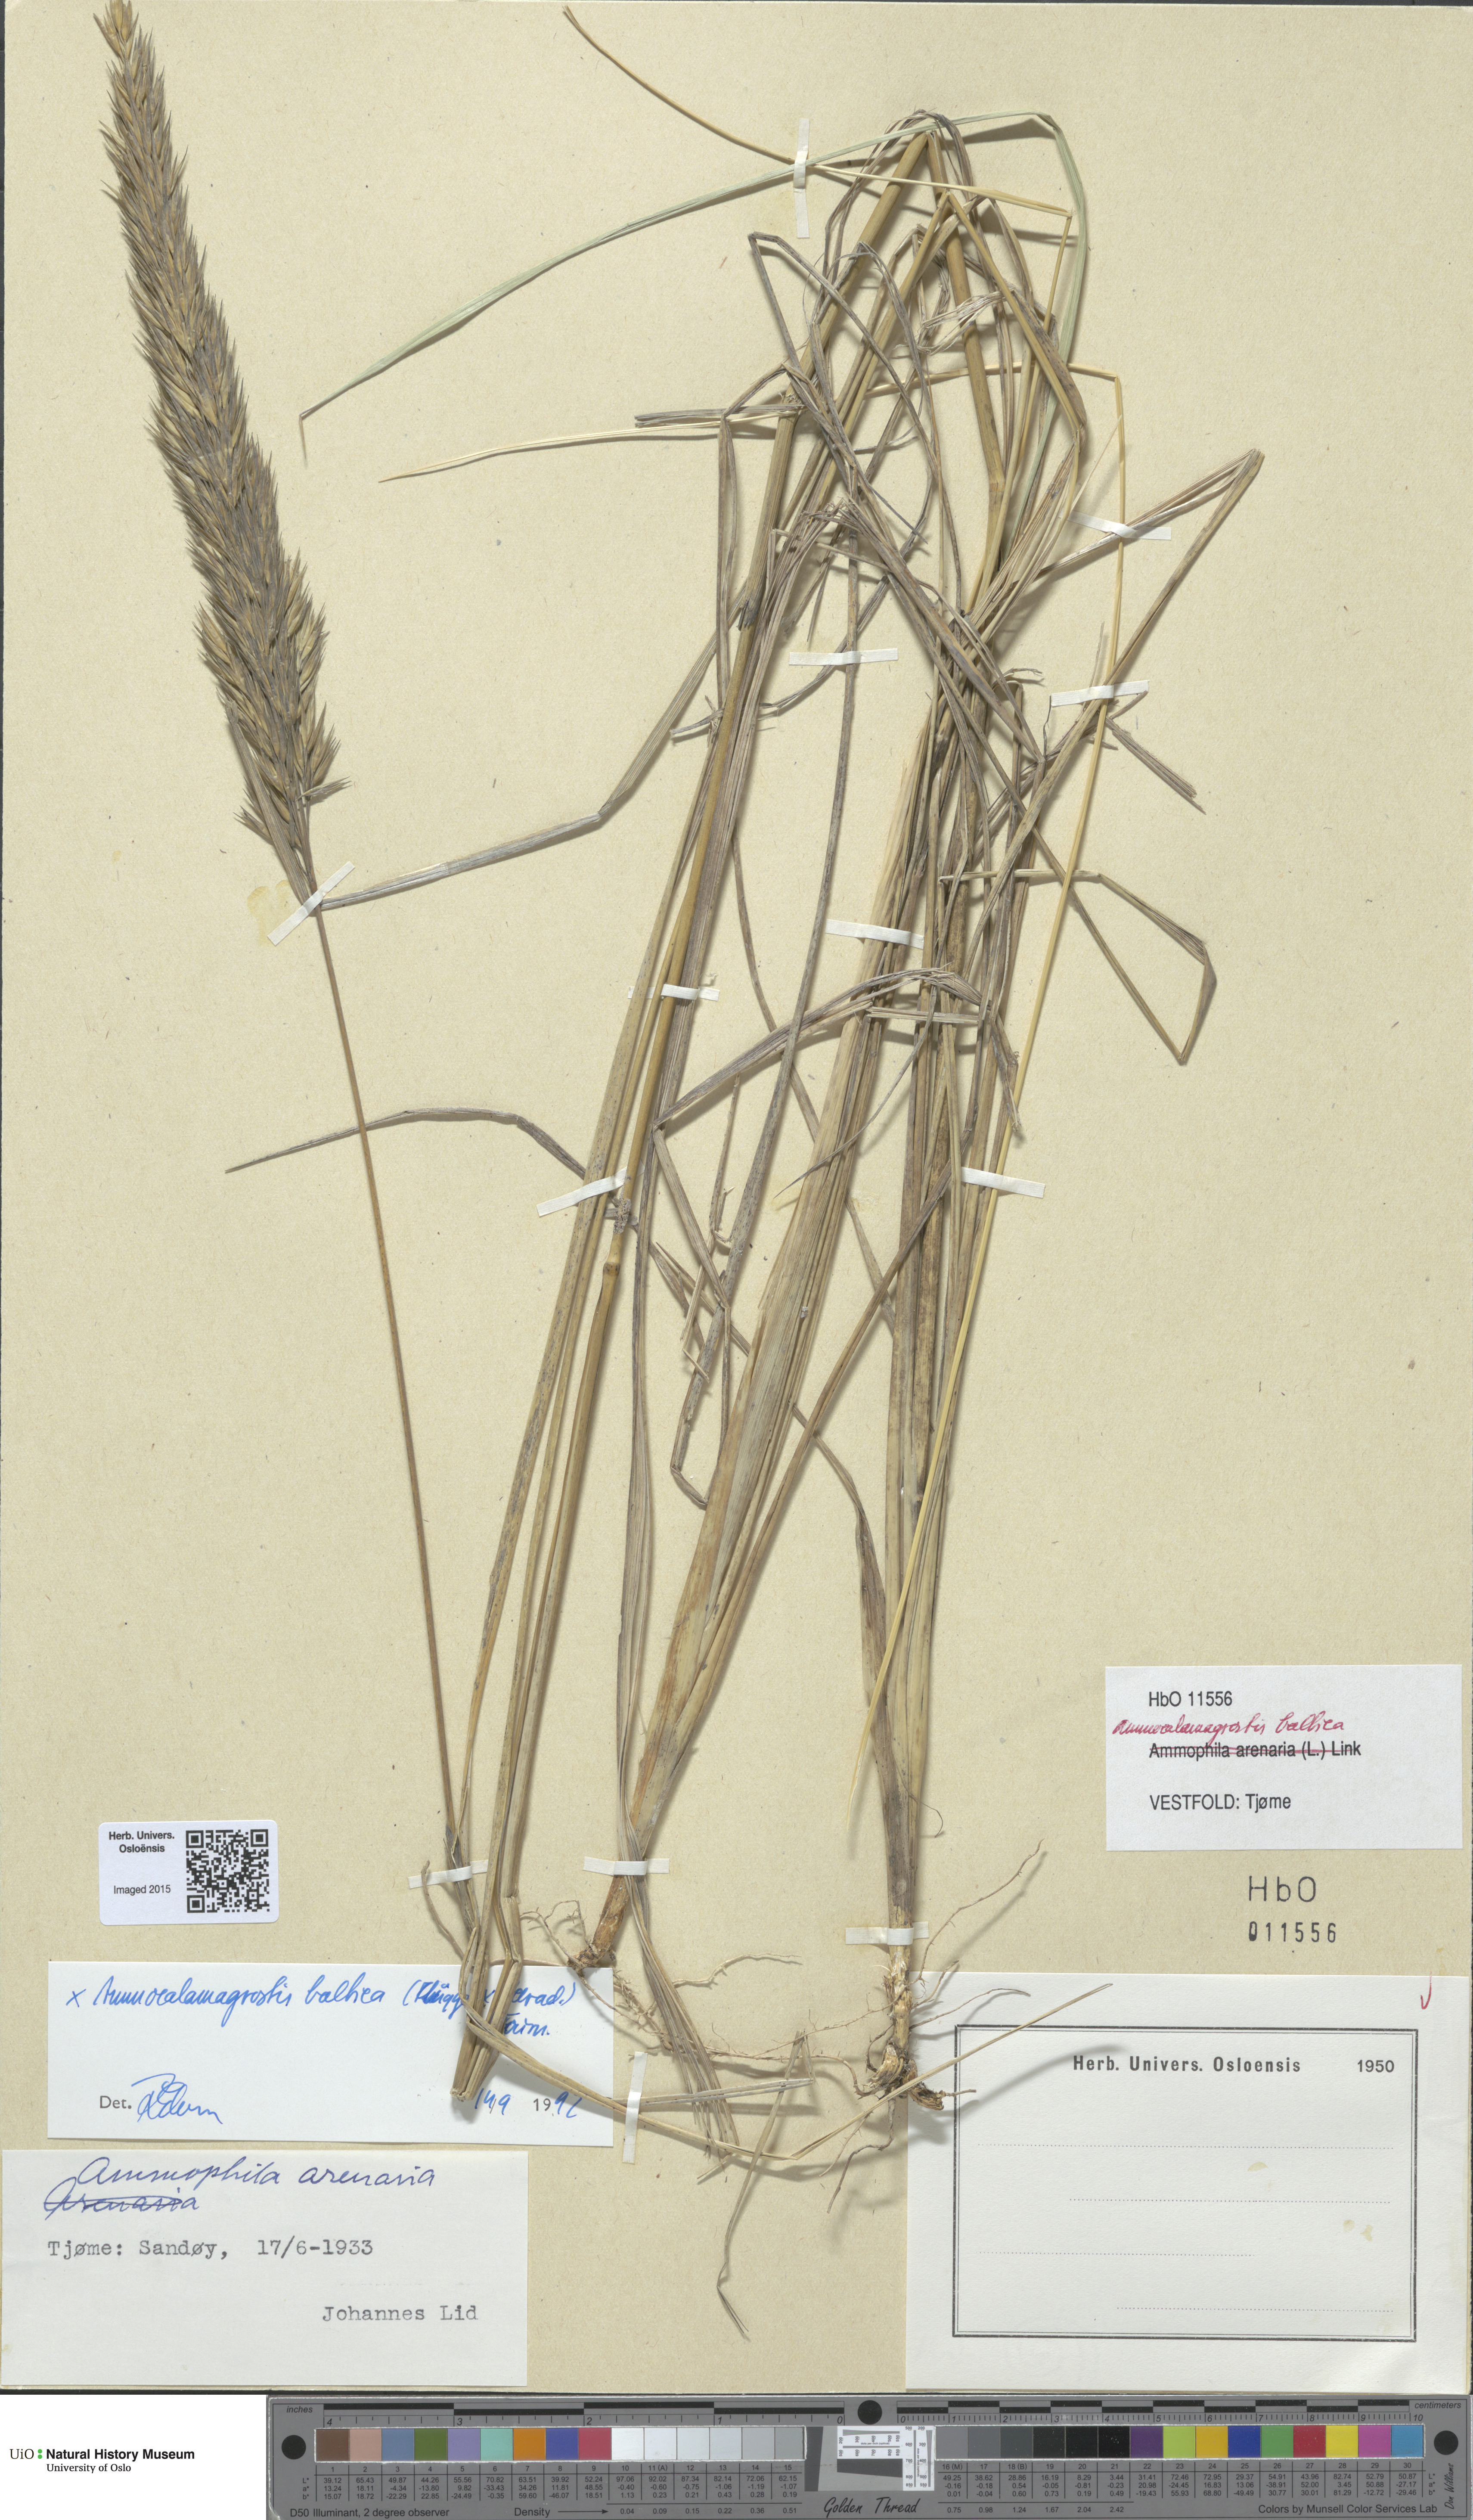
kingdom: Plantae
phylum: Tracheophyta
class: Liliopsida
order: Poales
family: Poaceae
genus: Calamagrostis
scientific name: Calamagrostis baltica
